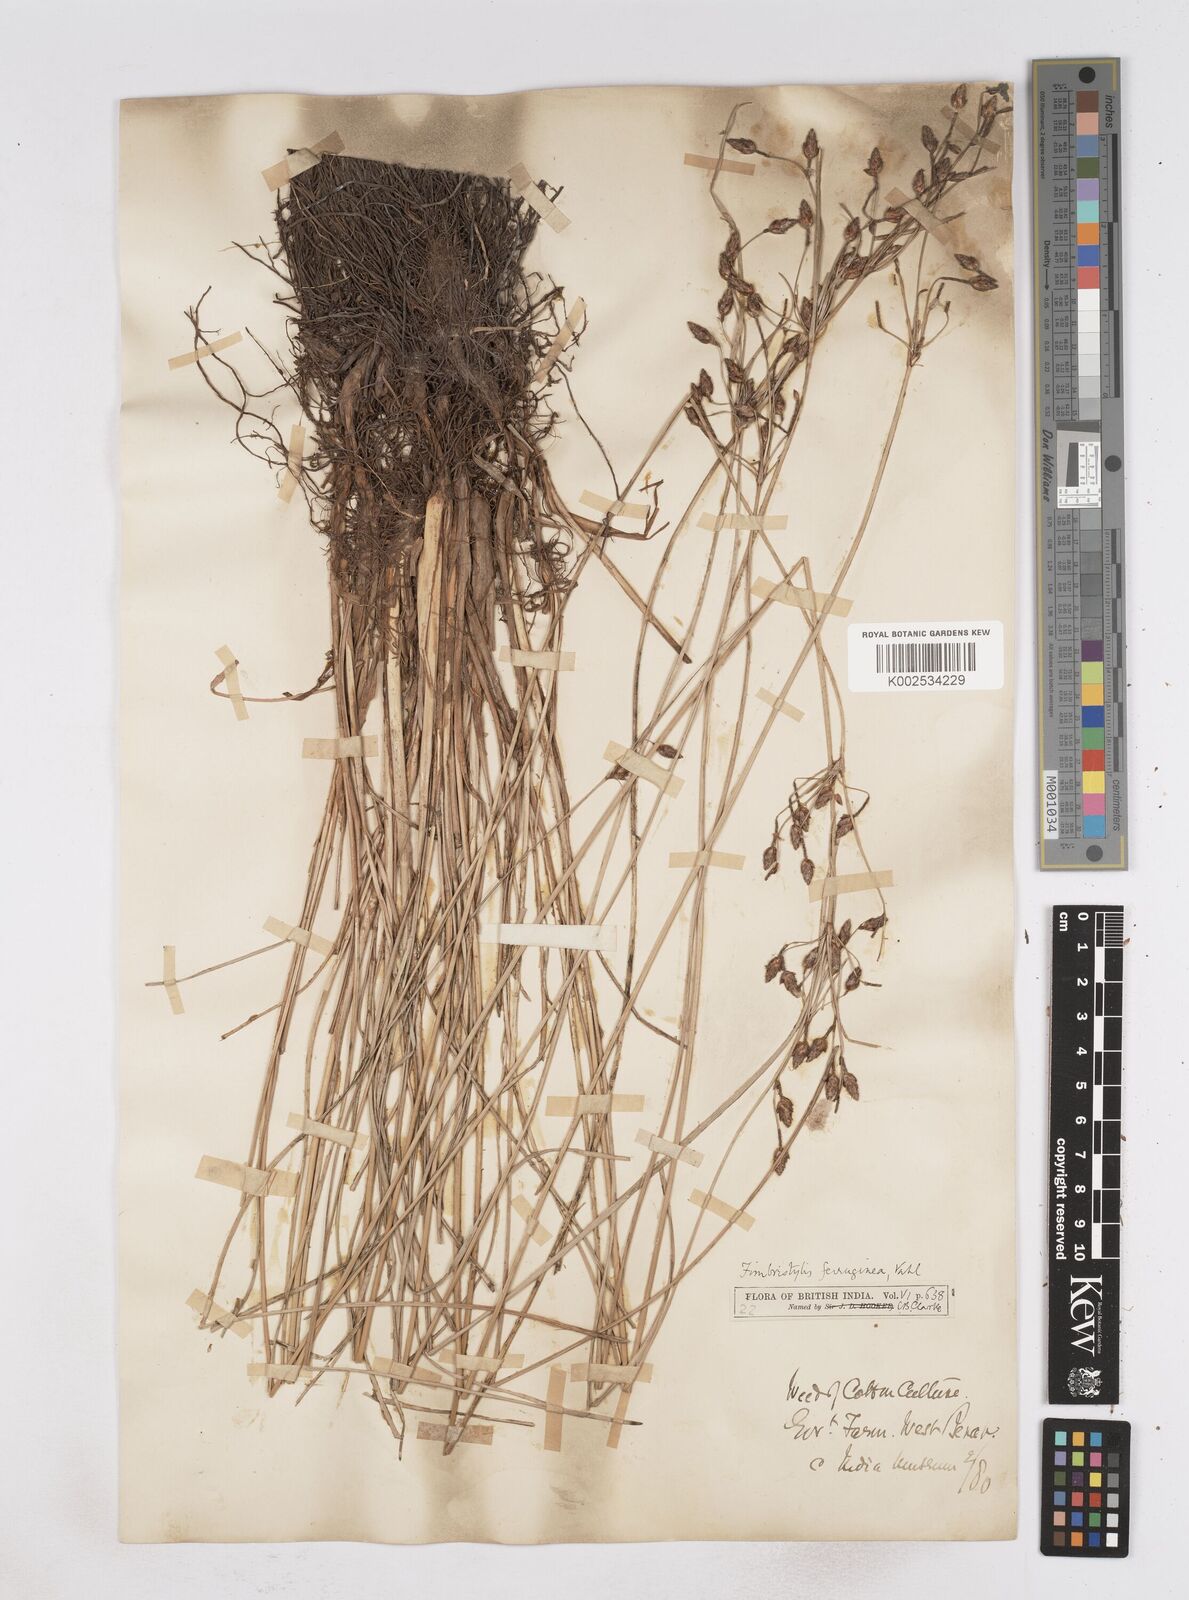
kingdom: Plantae
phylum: Tracheophyta
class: Liliopsida
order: Poales
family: Cyperaceae
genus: Fimbristylis
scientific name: Fimbristylis ferruginea
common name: West indian fimbry
